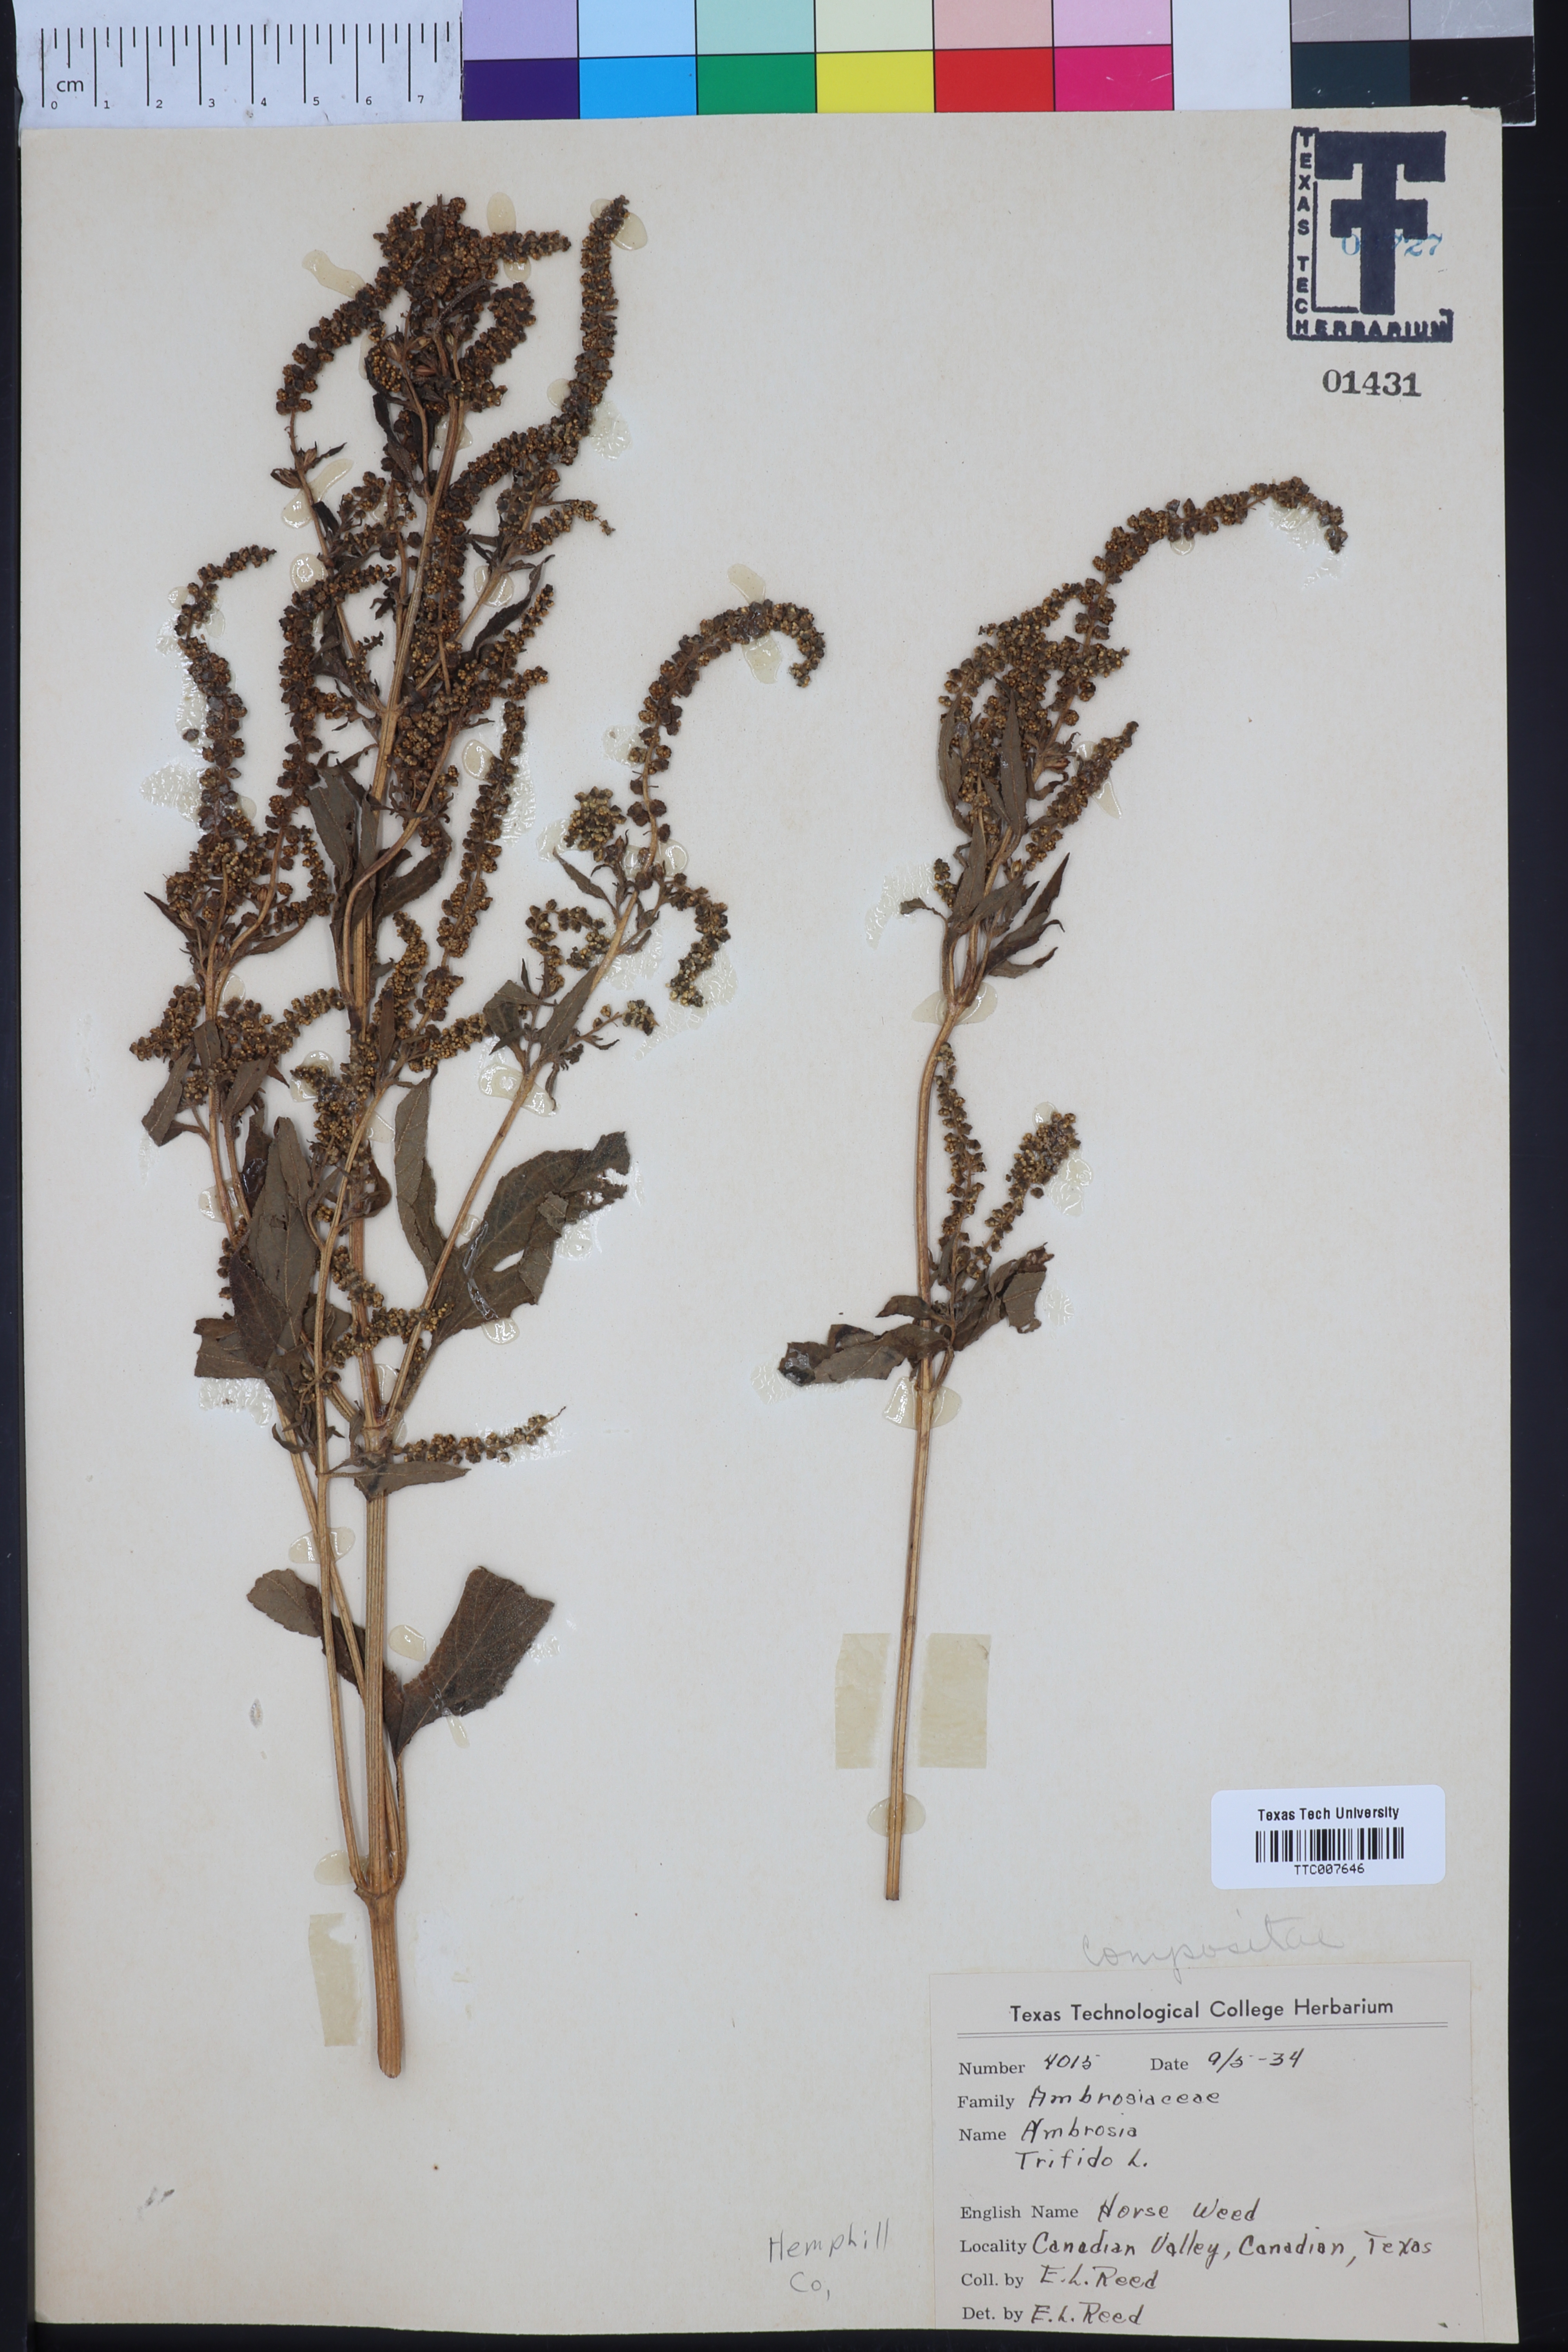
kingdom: Plantae
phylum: Tracheophyta
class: Magnoliopsida
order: Asterales
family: Asteraceae
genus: Ambrosia
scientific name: Ambrosia trifida
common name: Giant ragweed
